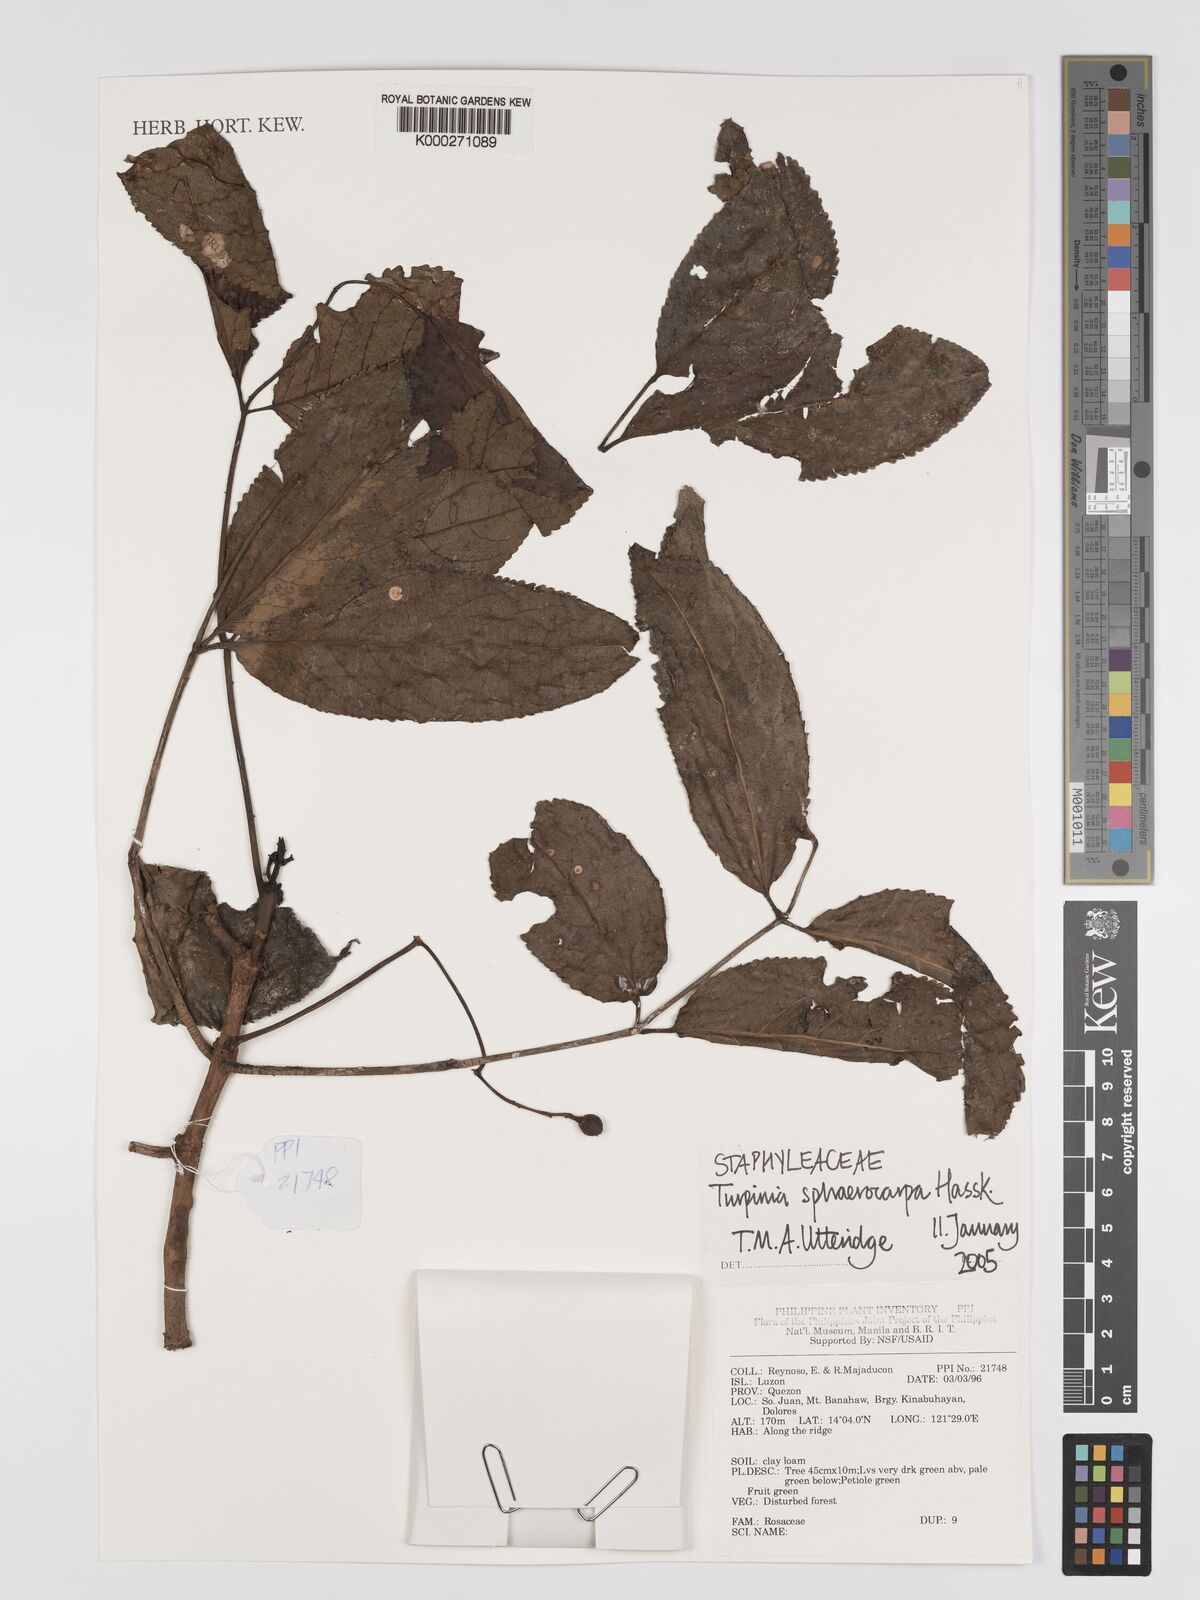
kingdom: Plantae
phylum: Tracheophyta
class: Magnoliopsida
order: Crossosomatales
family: Staphyleaceae
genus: Dalrympelea
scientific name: Dalrympelea sphaerocarpa
